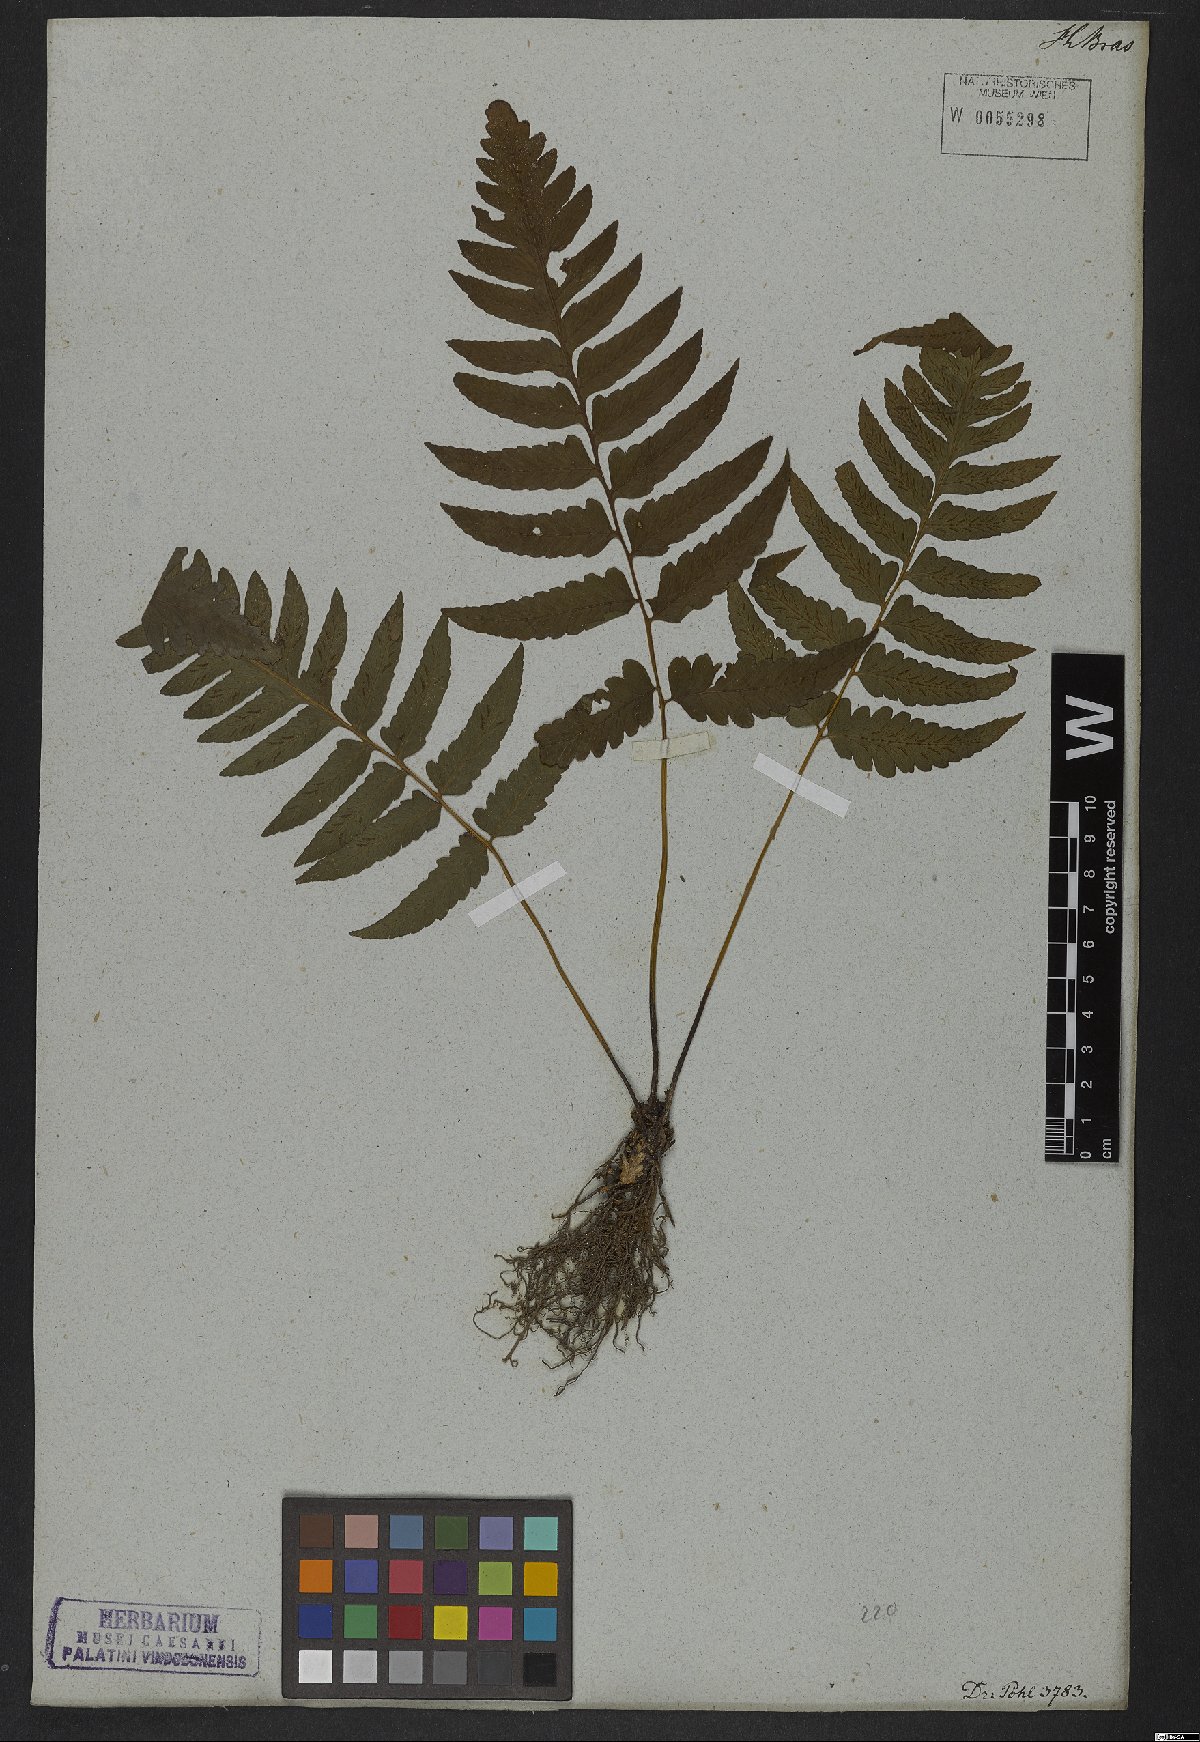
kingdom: Plantae
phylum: Tracheophyta
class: Polypodiopsida
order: Polypodiales
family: Athyriaceae
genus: Diplazium
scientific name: Diplazium cristatum
